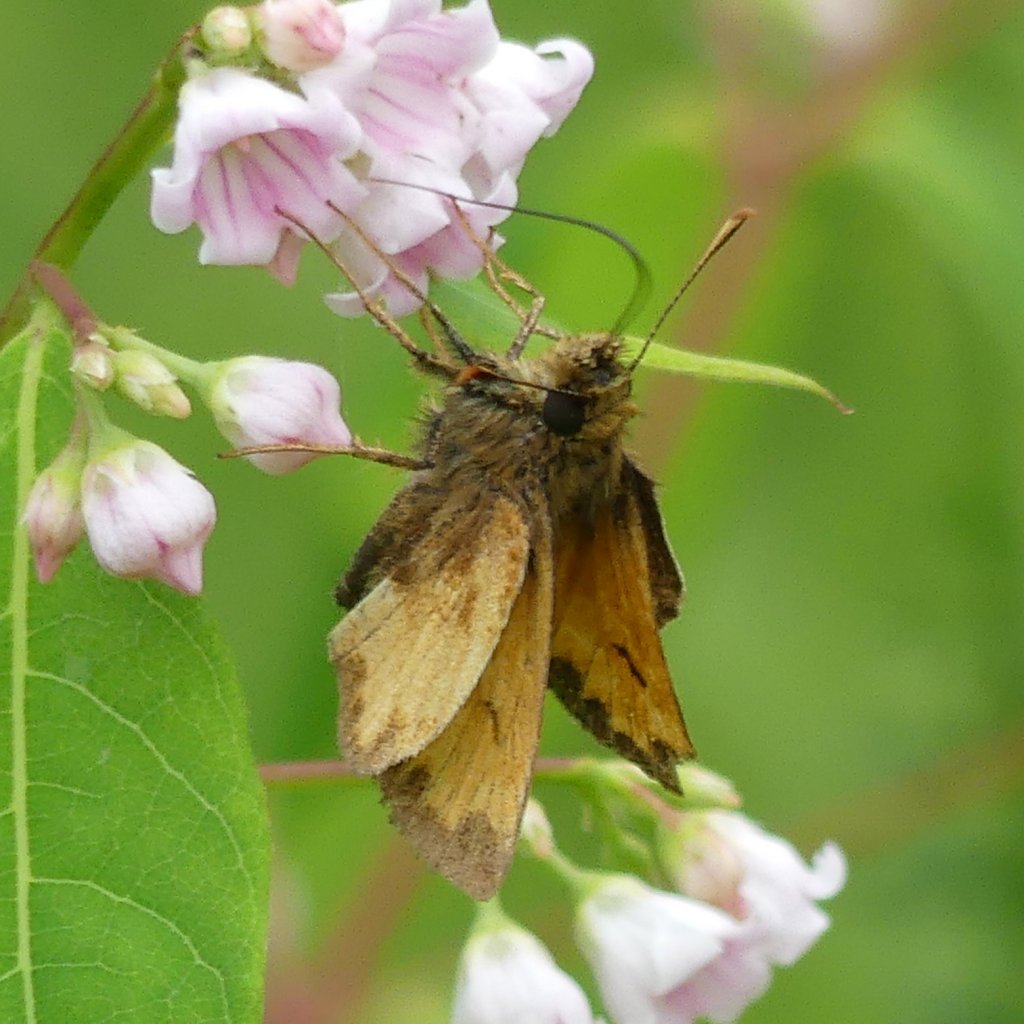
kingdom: Animalia
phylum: Arthropoda
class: Insecta
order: Lepidoptera
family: Hesperiidae
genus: Lon
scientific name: Lon hobomok
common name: Hobomok Skipper
